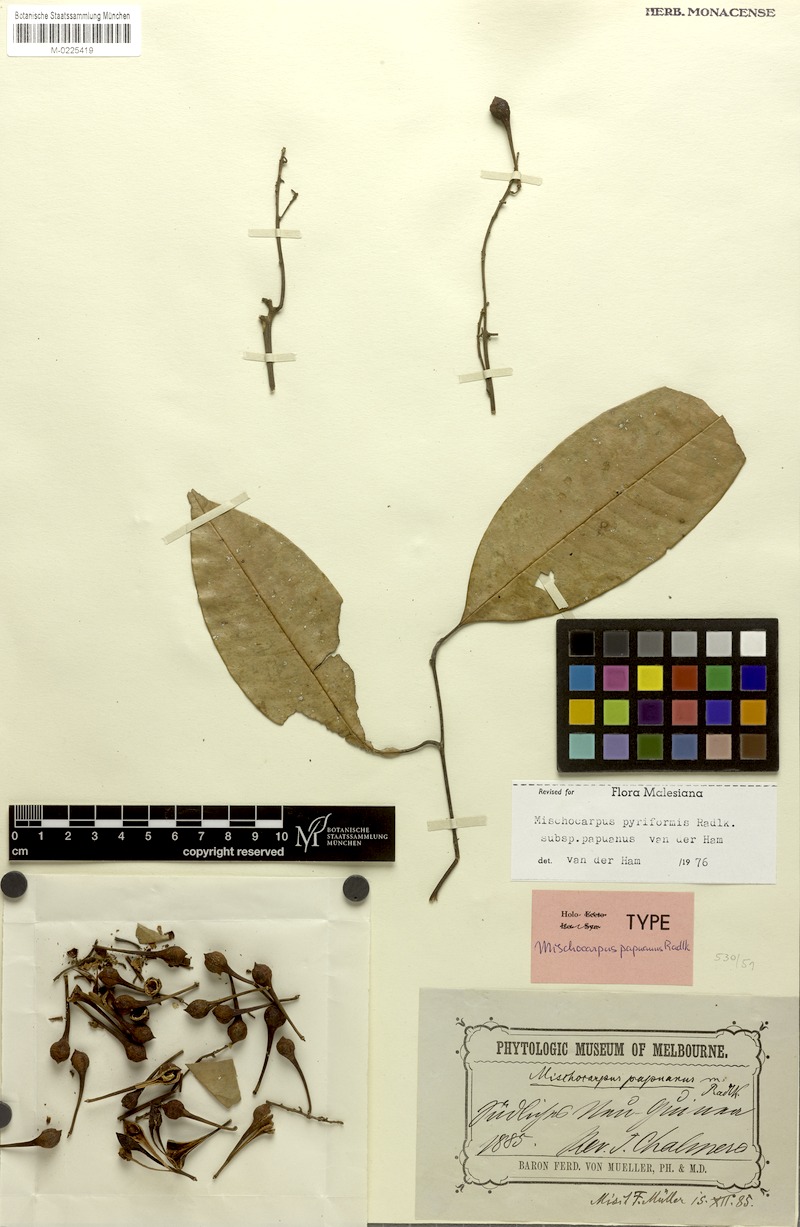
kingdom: Plantae
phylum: Tracheophyta
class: Magnoliopsida
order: Sapindales
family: Sapindaceae
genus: Mischocarpus
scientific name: Mischocarpus pyriformis
